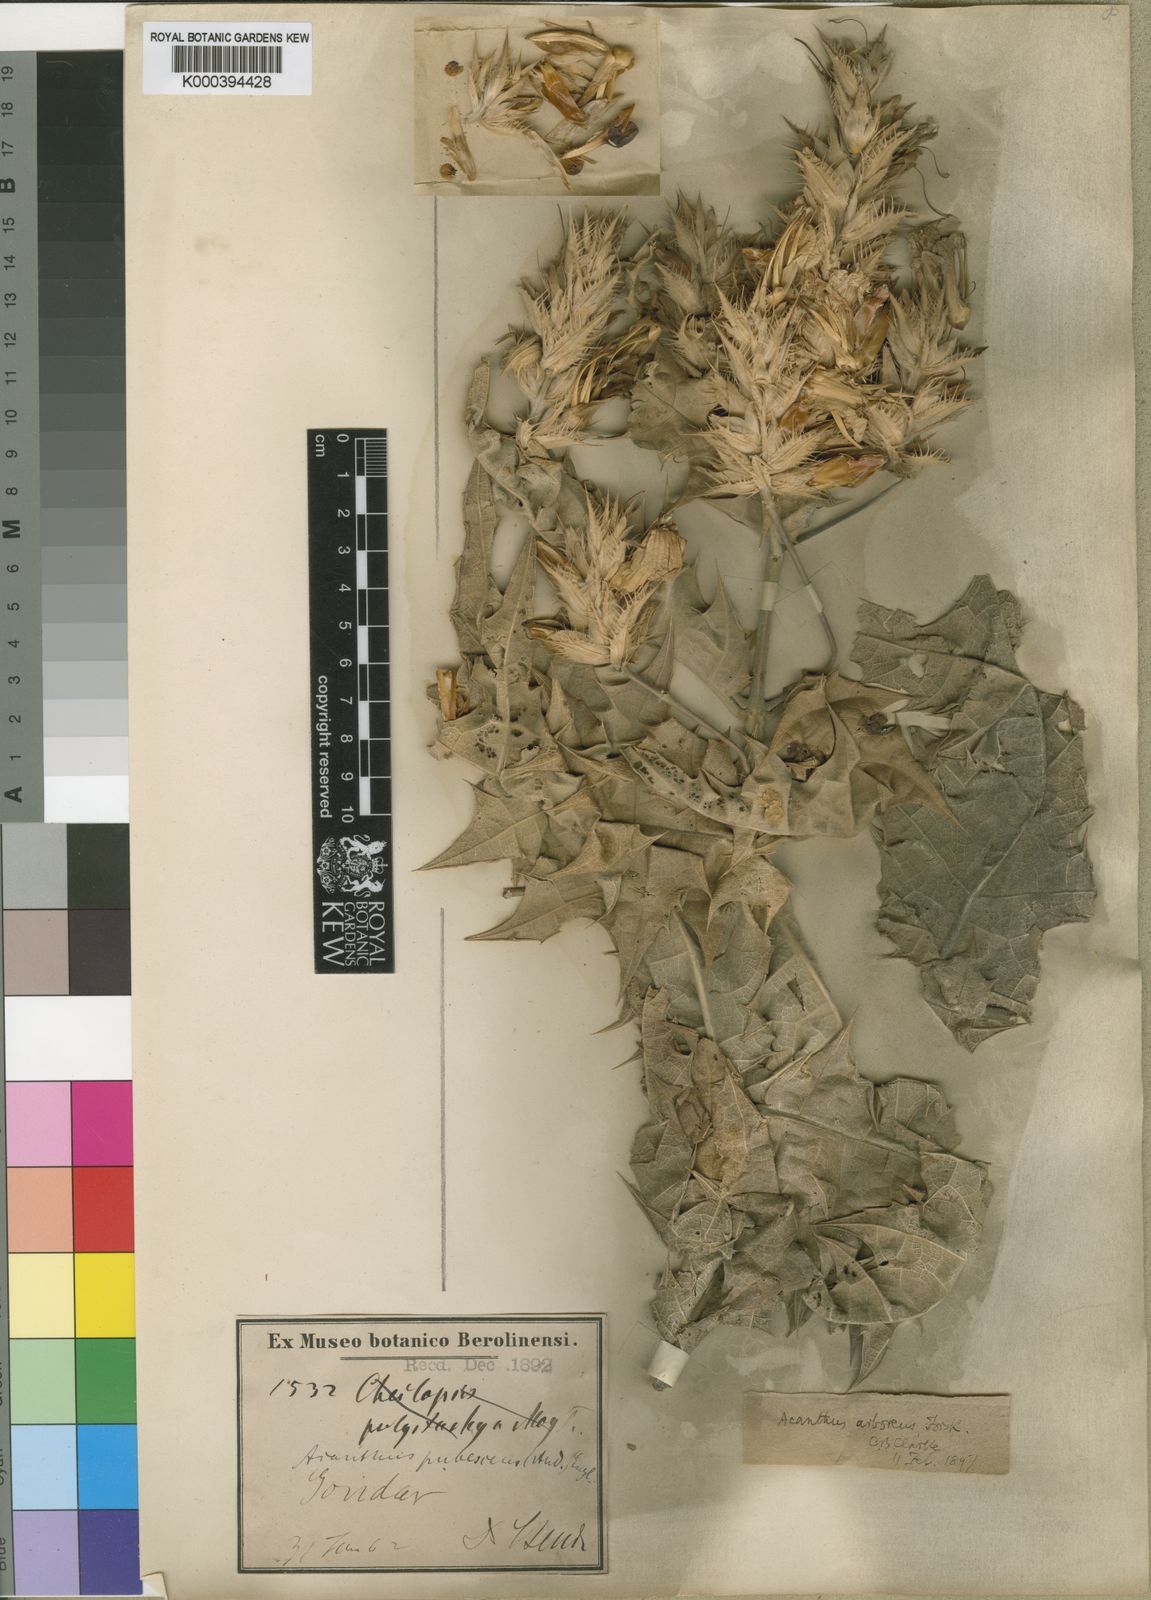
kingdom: Plantae
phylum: Tracheophyta
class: Magnoliopsida
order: Lamiales
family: Acanthaceae
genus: Acanthus
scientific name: Acanthus polystachyus
